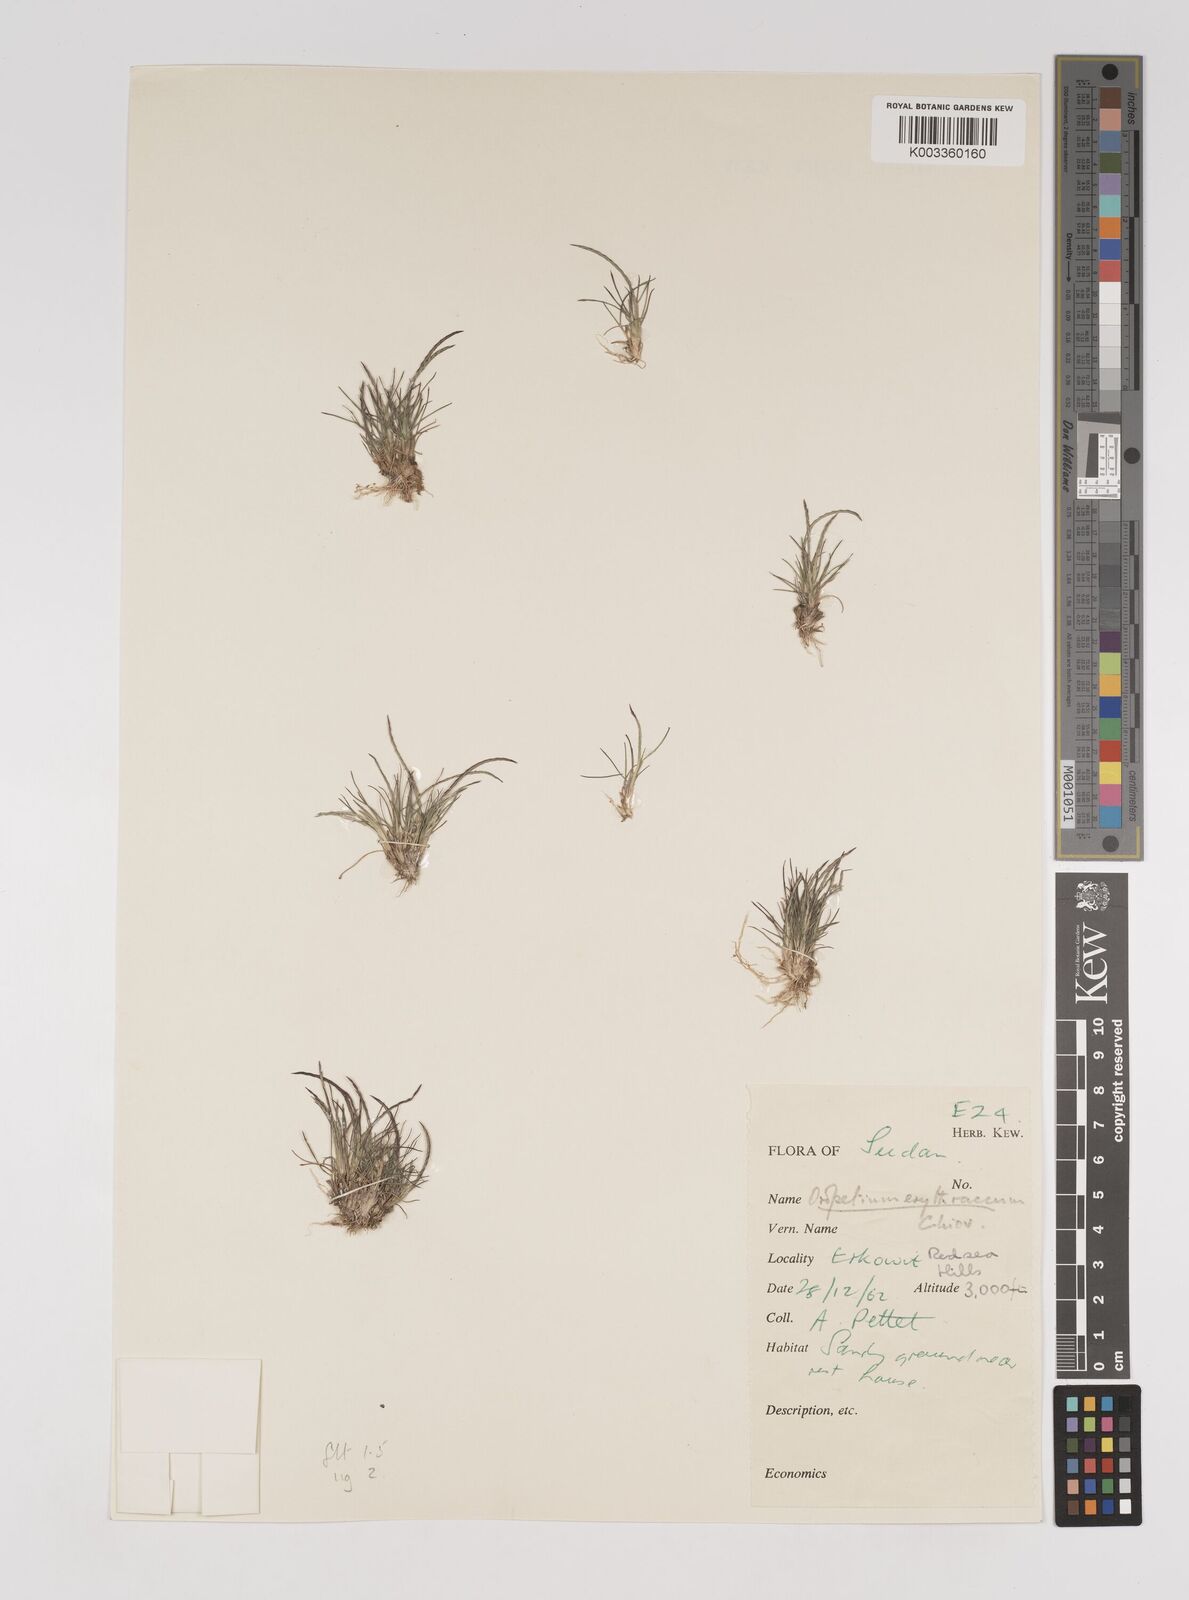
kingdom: Plantae
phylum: Tracheophyta
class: Liliopsida
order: Poales
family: Poaceae
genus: Oropetium
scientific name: Oropetium capense
